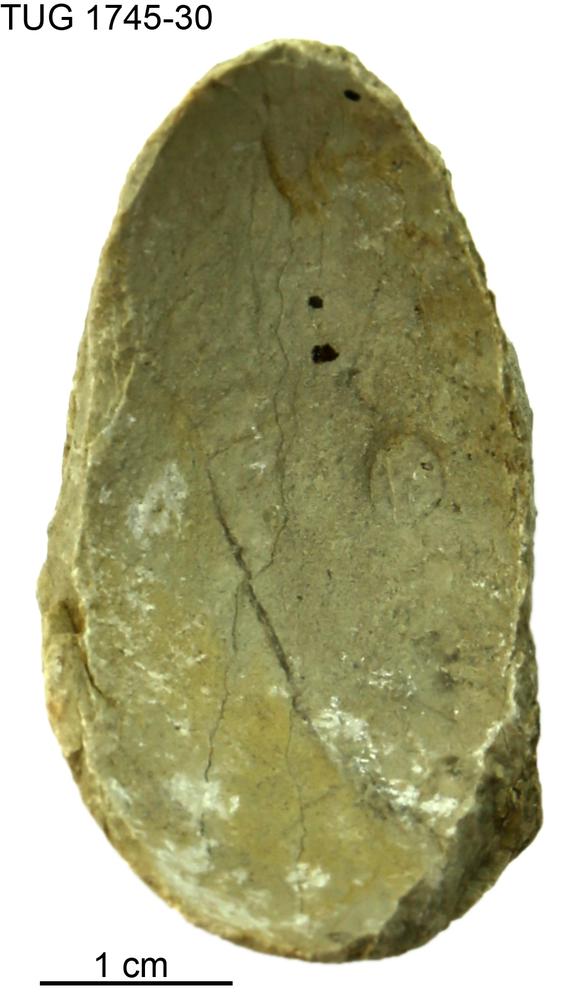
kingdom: Animalia
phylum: Mollusca
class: Cephalopoda
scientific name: Cephalopoda
